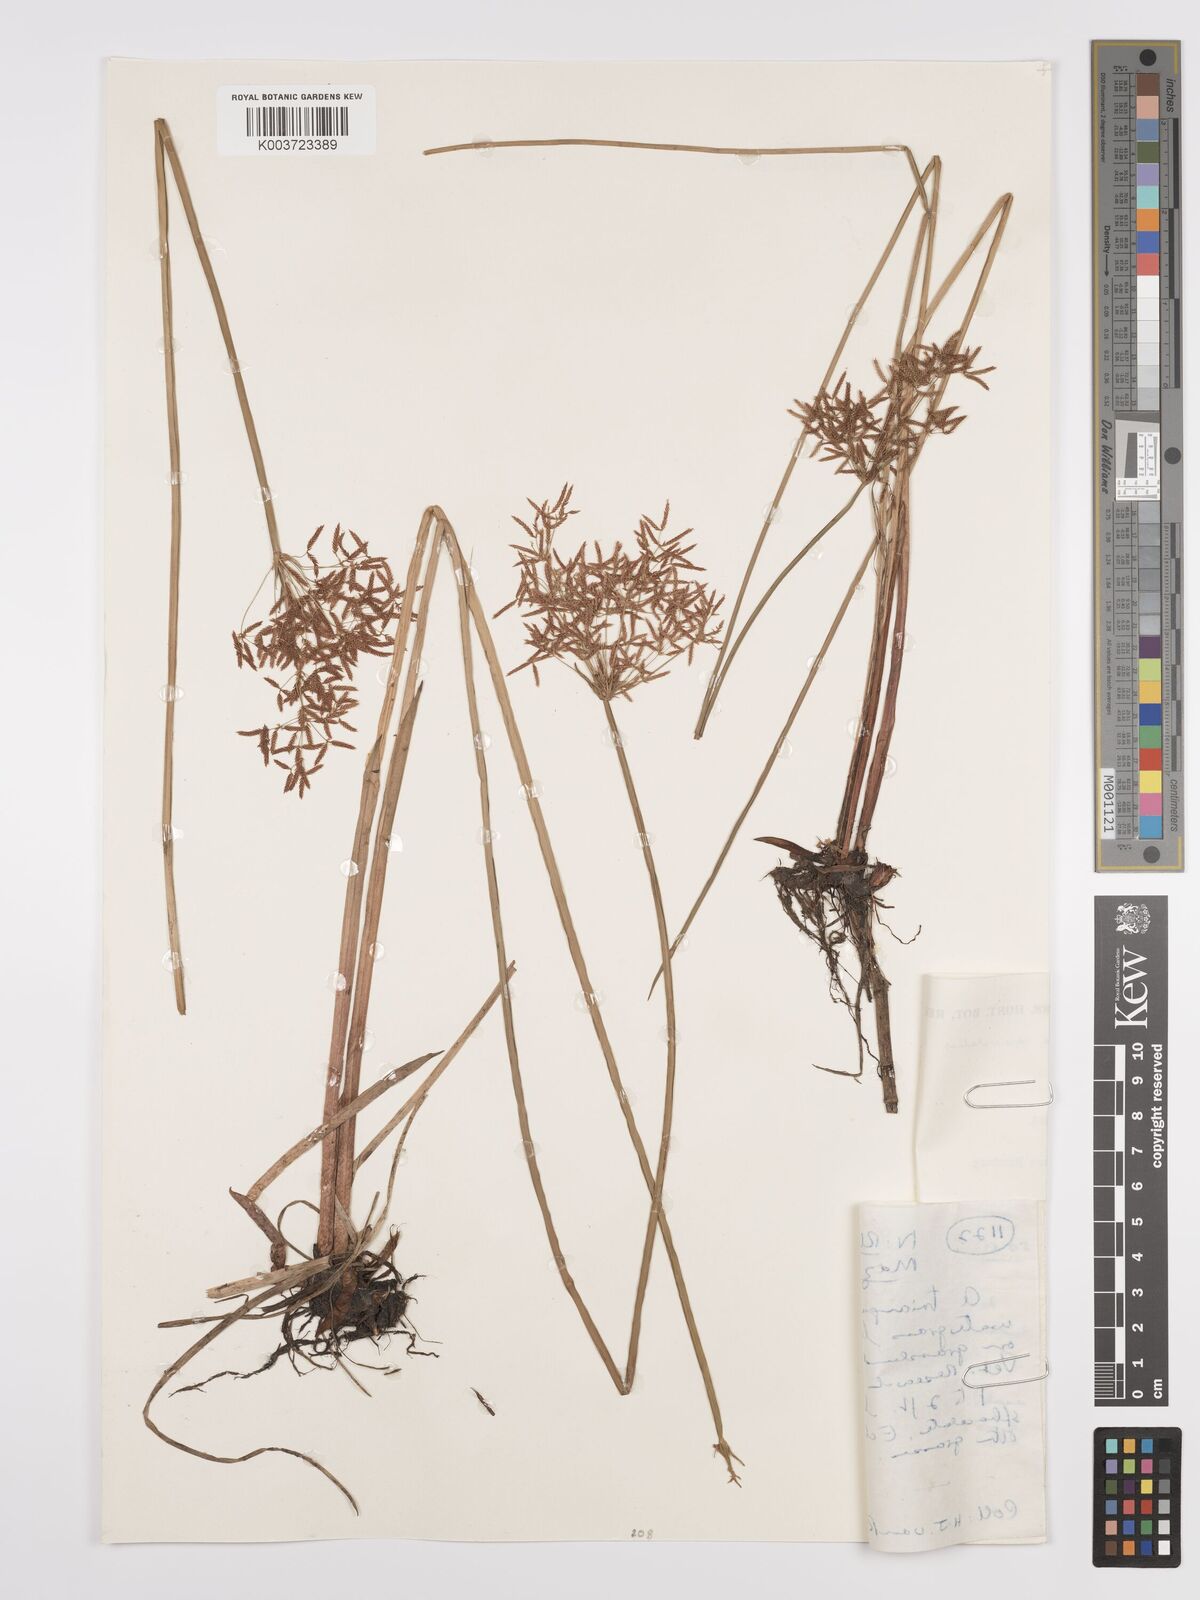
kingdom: Plantae
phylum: Tracheophyta
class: Liliopsida
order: Poales
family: Cyperaceae
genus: Cyperus
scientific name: Cyperus denudatus
